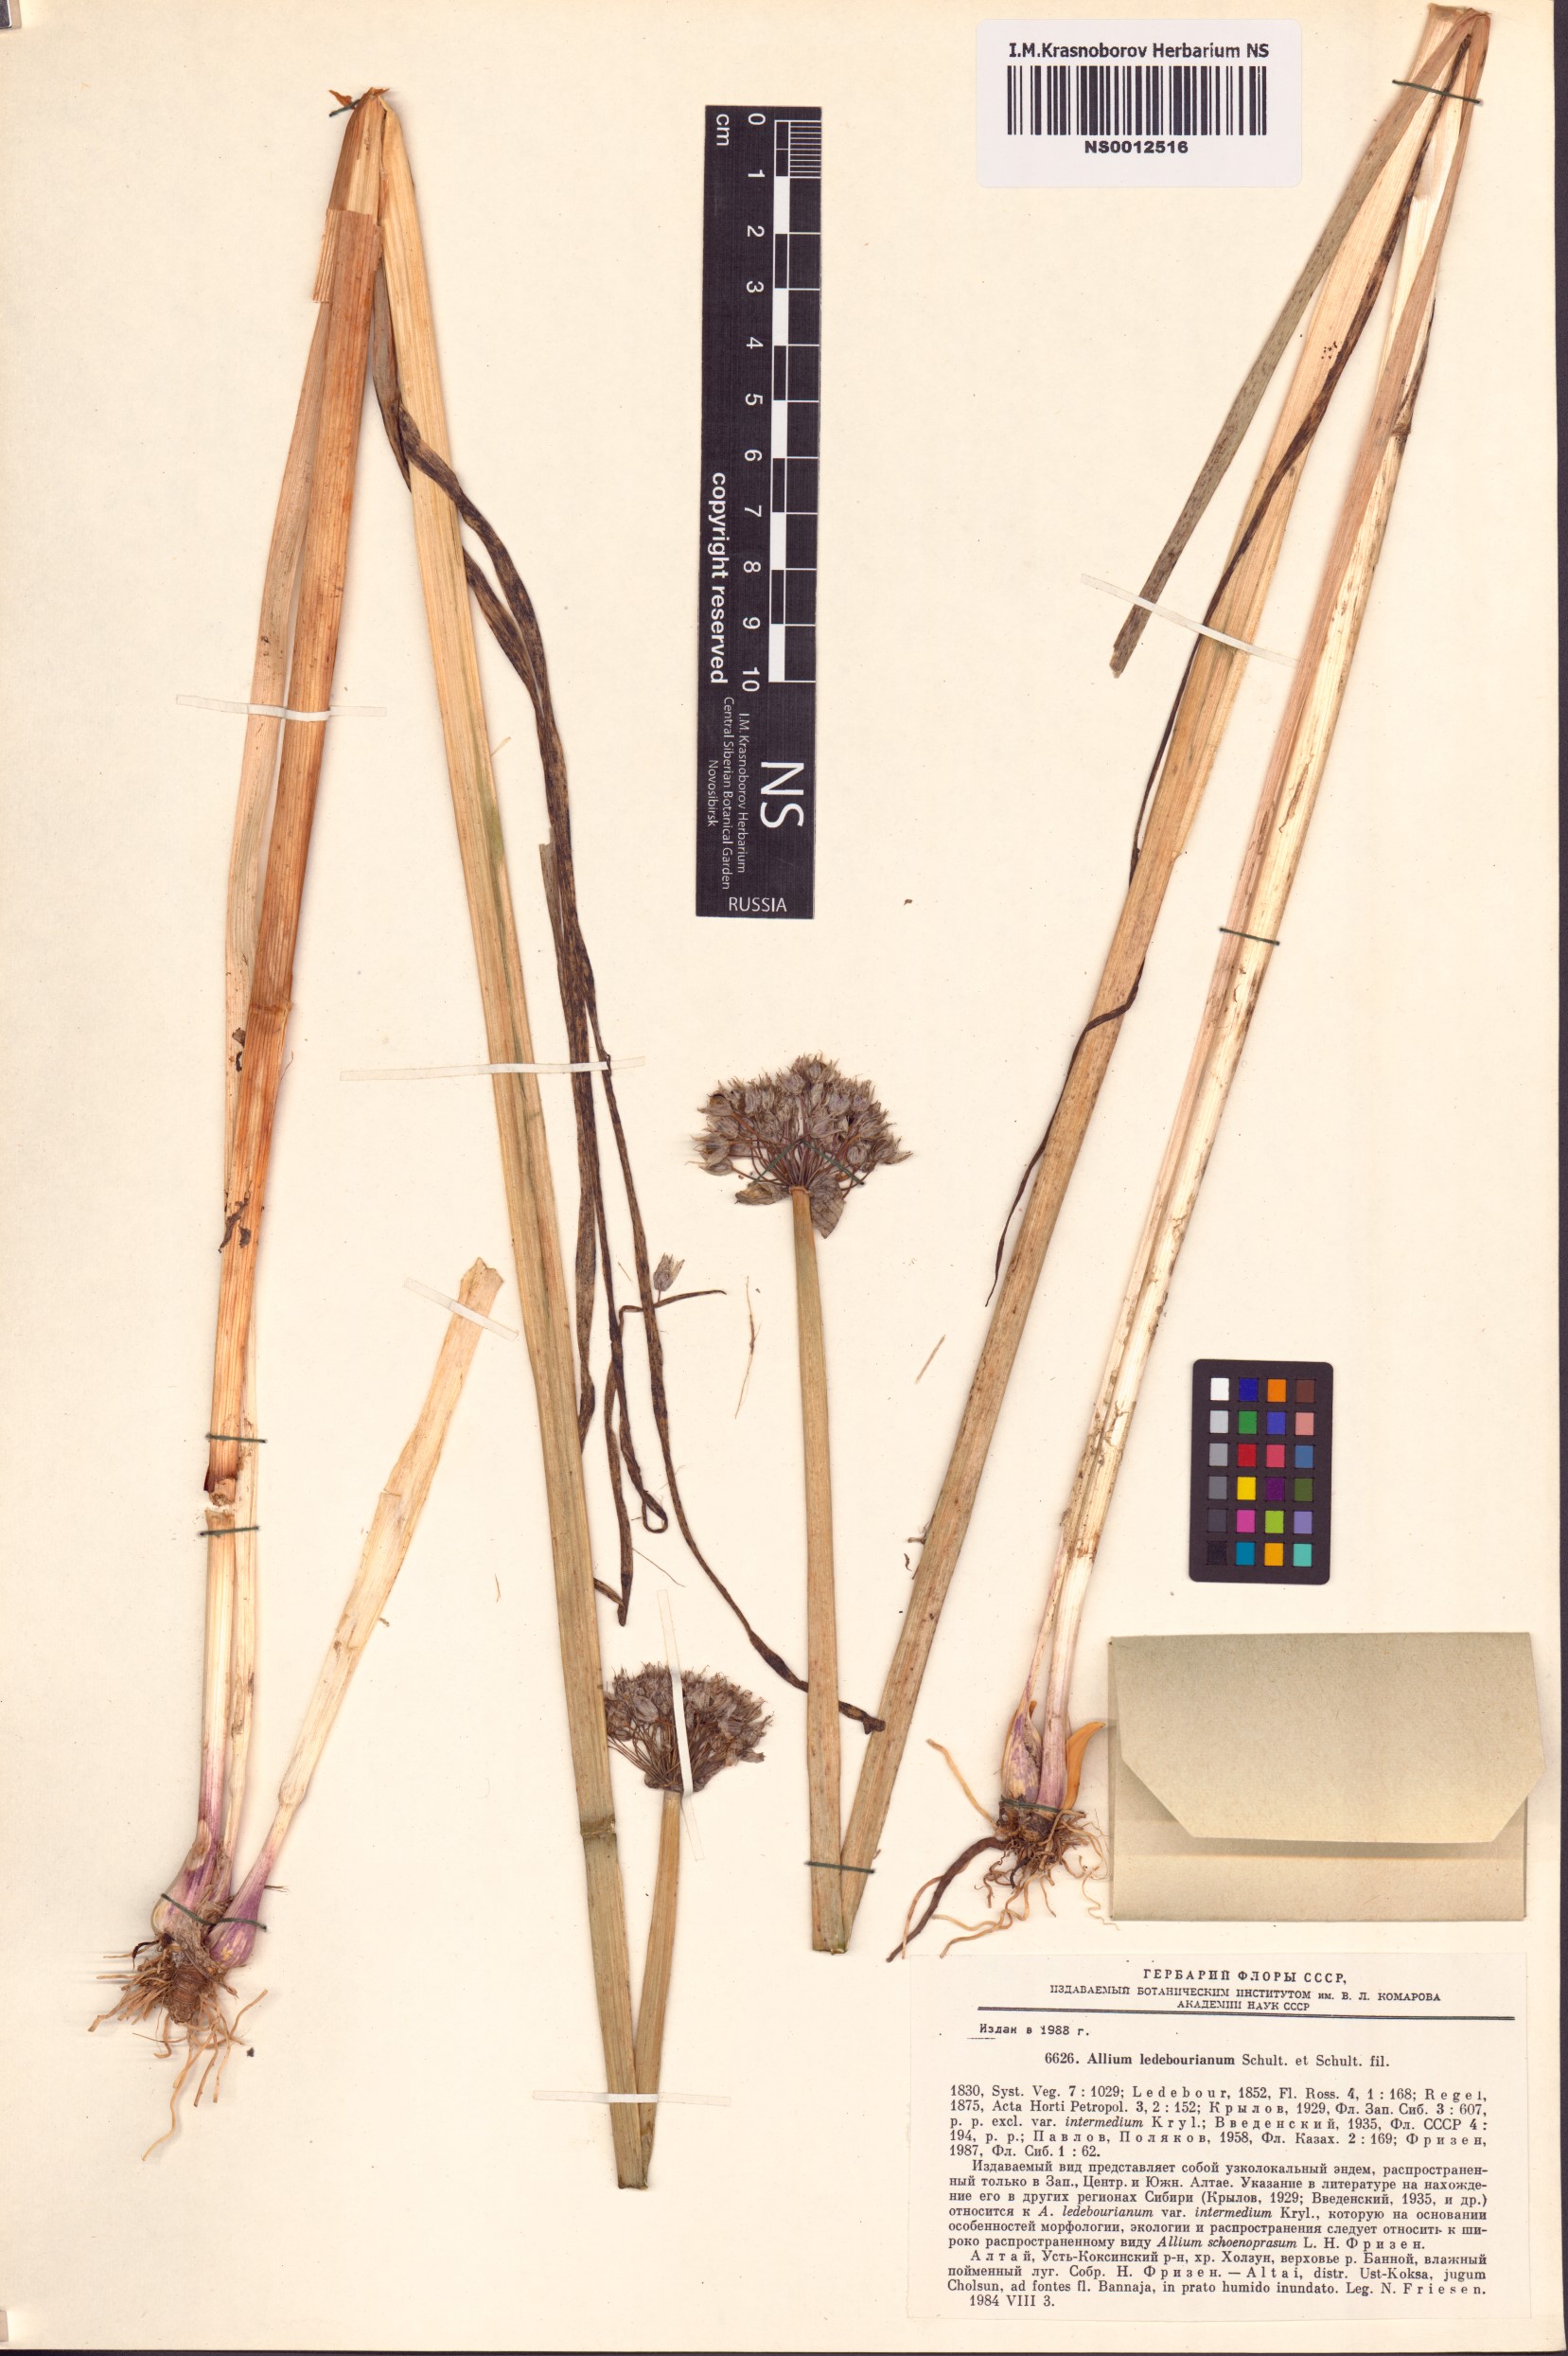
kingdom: Plantae
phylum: Tracheophyta
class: Liliopsida
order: Asparagales
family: Amaryllidaceae
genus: Allium
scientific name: Allium ledebourianum
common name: Ledebour chive
